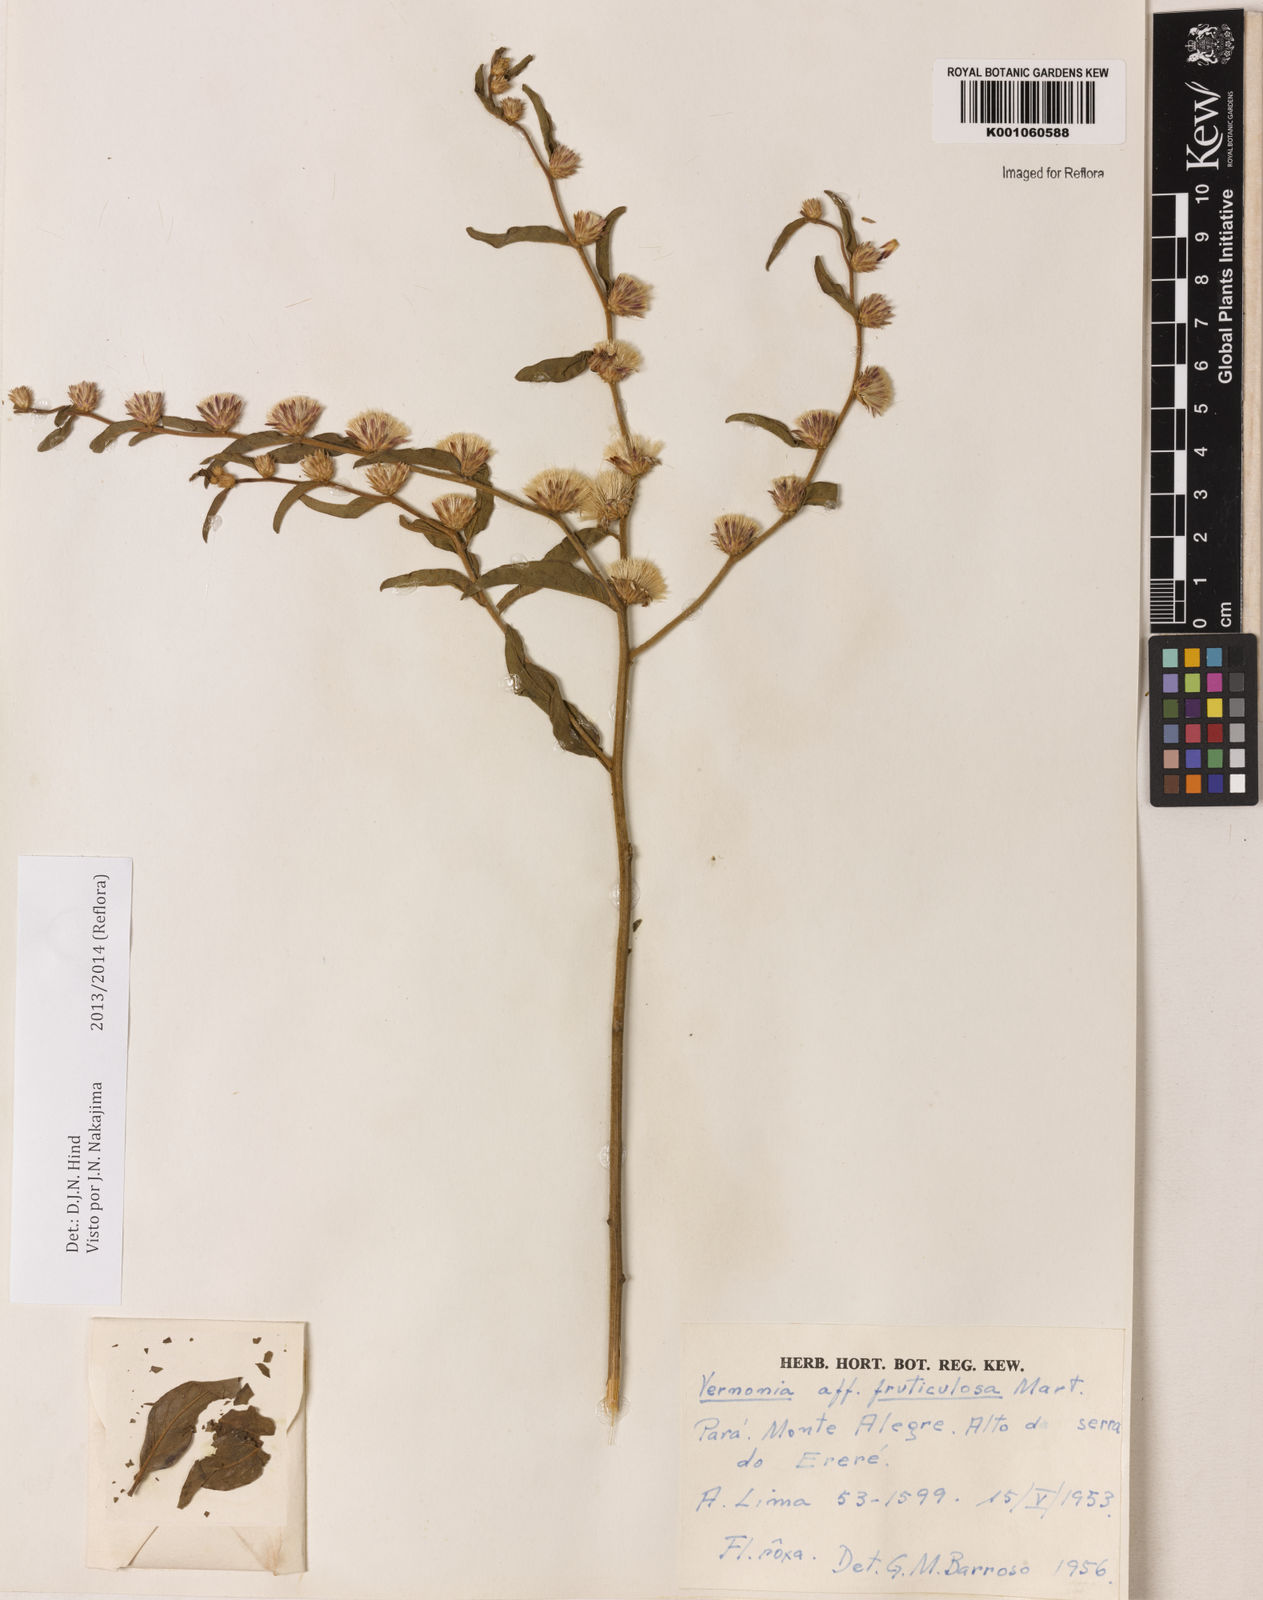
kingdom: Plantae
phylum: Tracheophyta
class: Magnoliopsida
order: Asterales
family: Asteraceae
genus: Lepidaploa
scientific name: Lepidaploa rufogrisea
